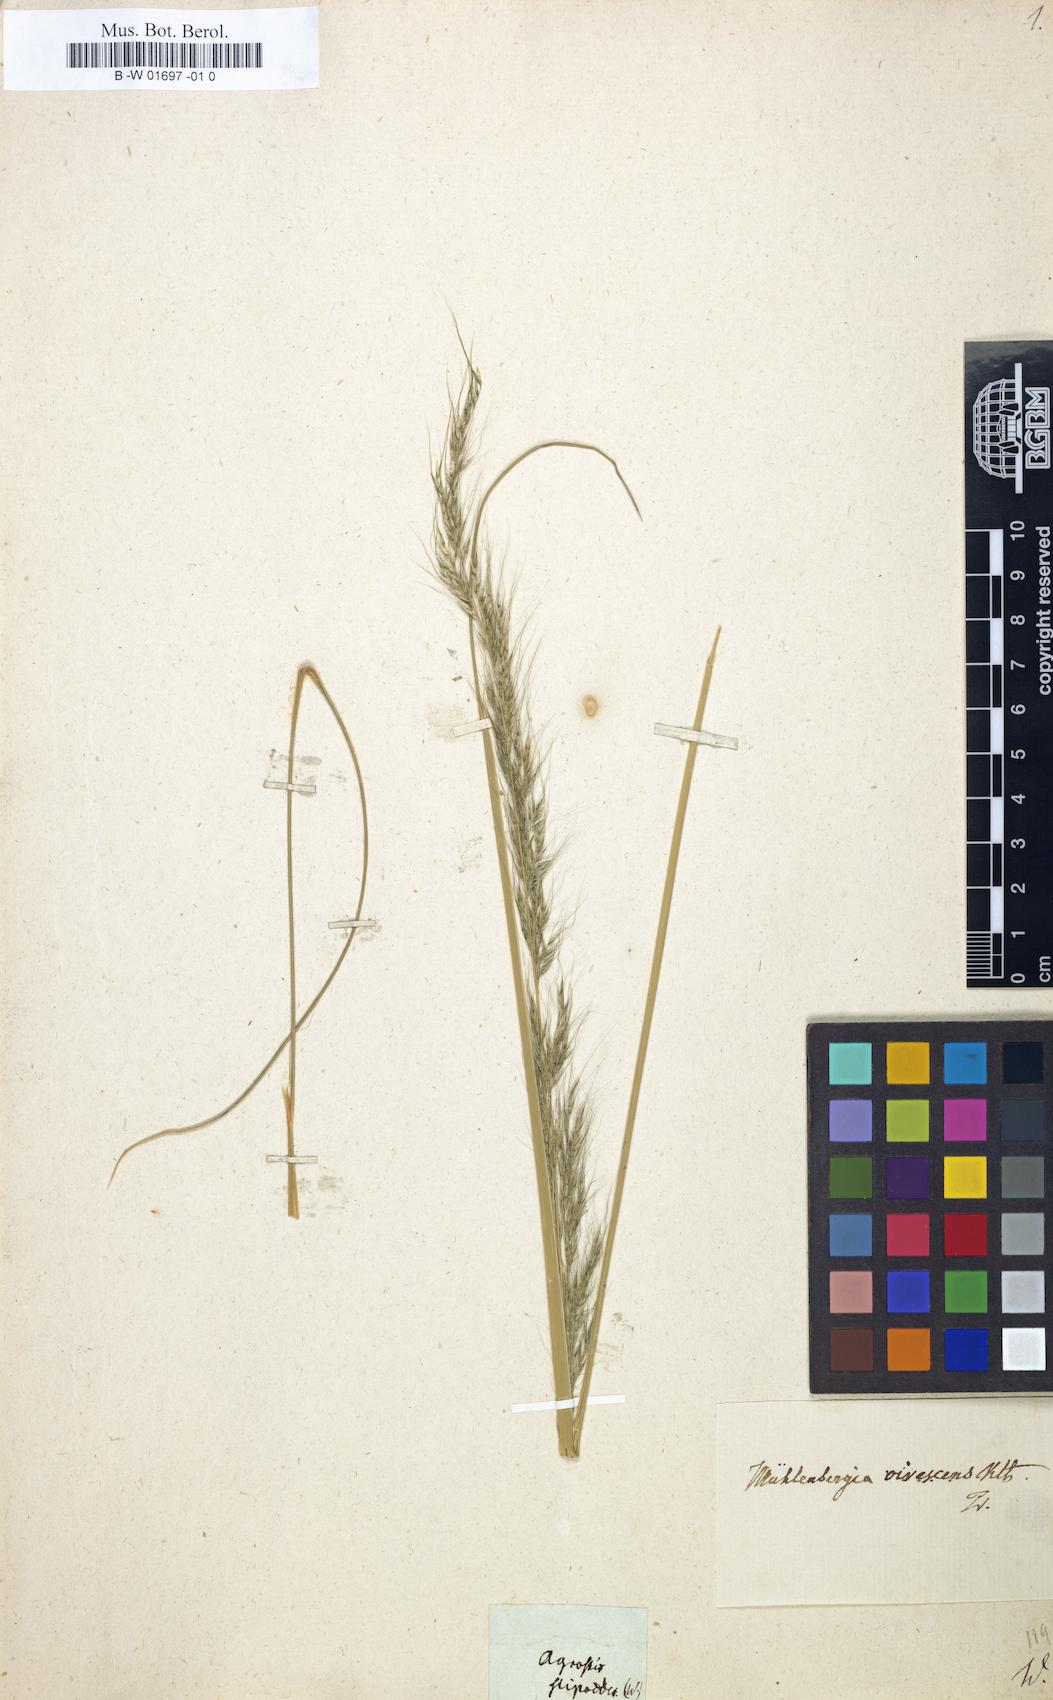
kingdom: Plantae
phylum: Tracheophyta
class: Liliopsida
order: Poales
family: Poaceae
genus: Triniochloa
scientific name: Triniochloa stipoides
